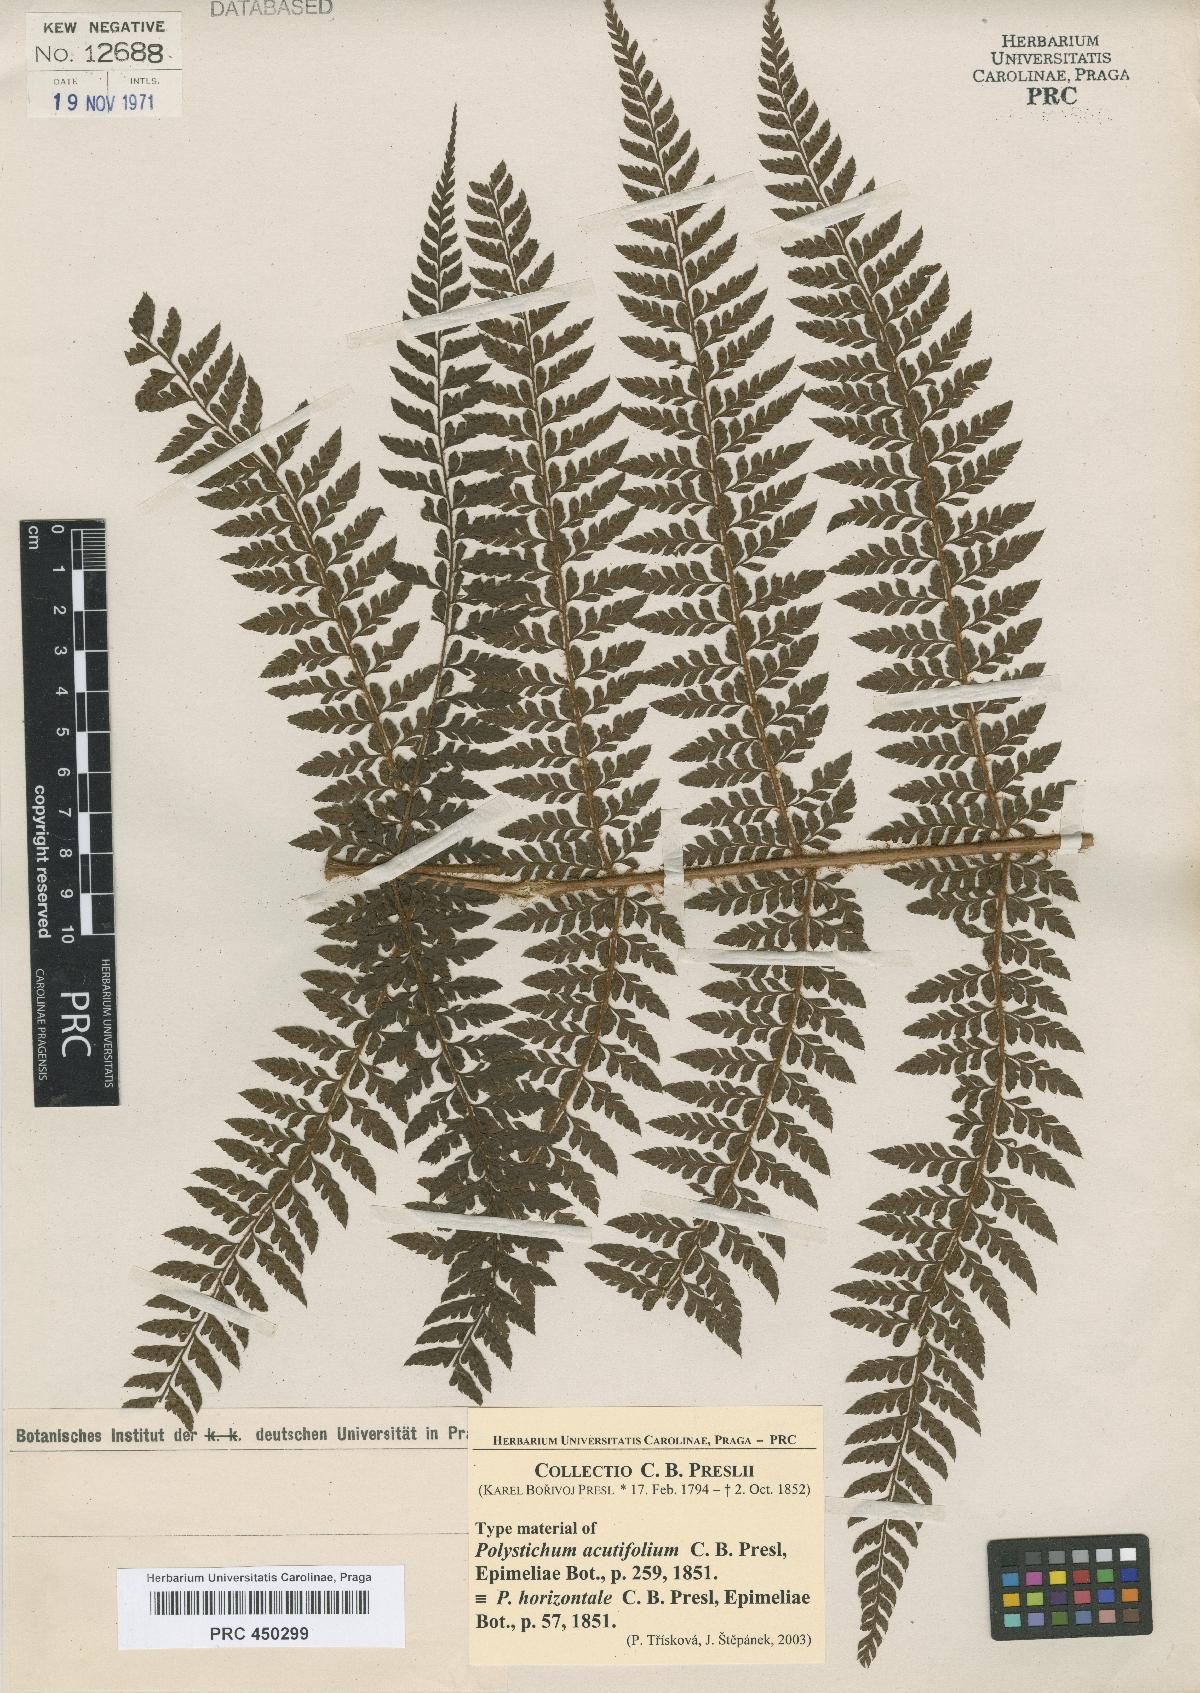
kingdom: Plantae
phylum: Tracheophyta
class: Polypodiopsida
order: Polypodiales
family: Dryopteridaceae
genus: Polystichum
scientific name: Polystichum moluccense
